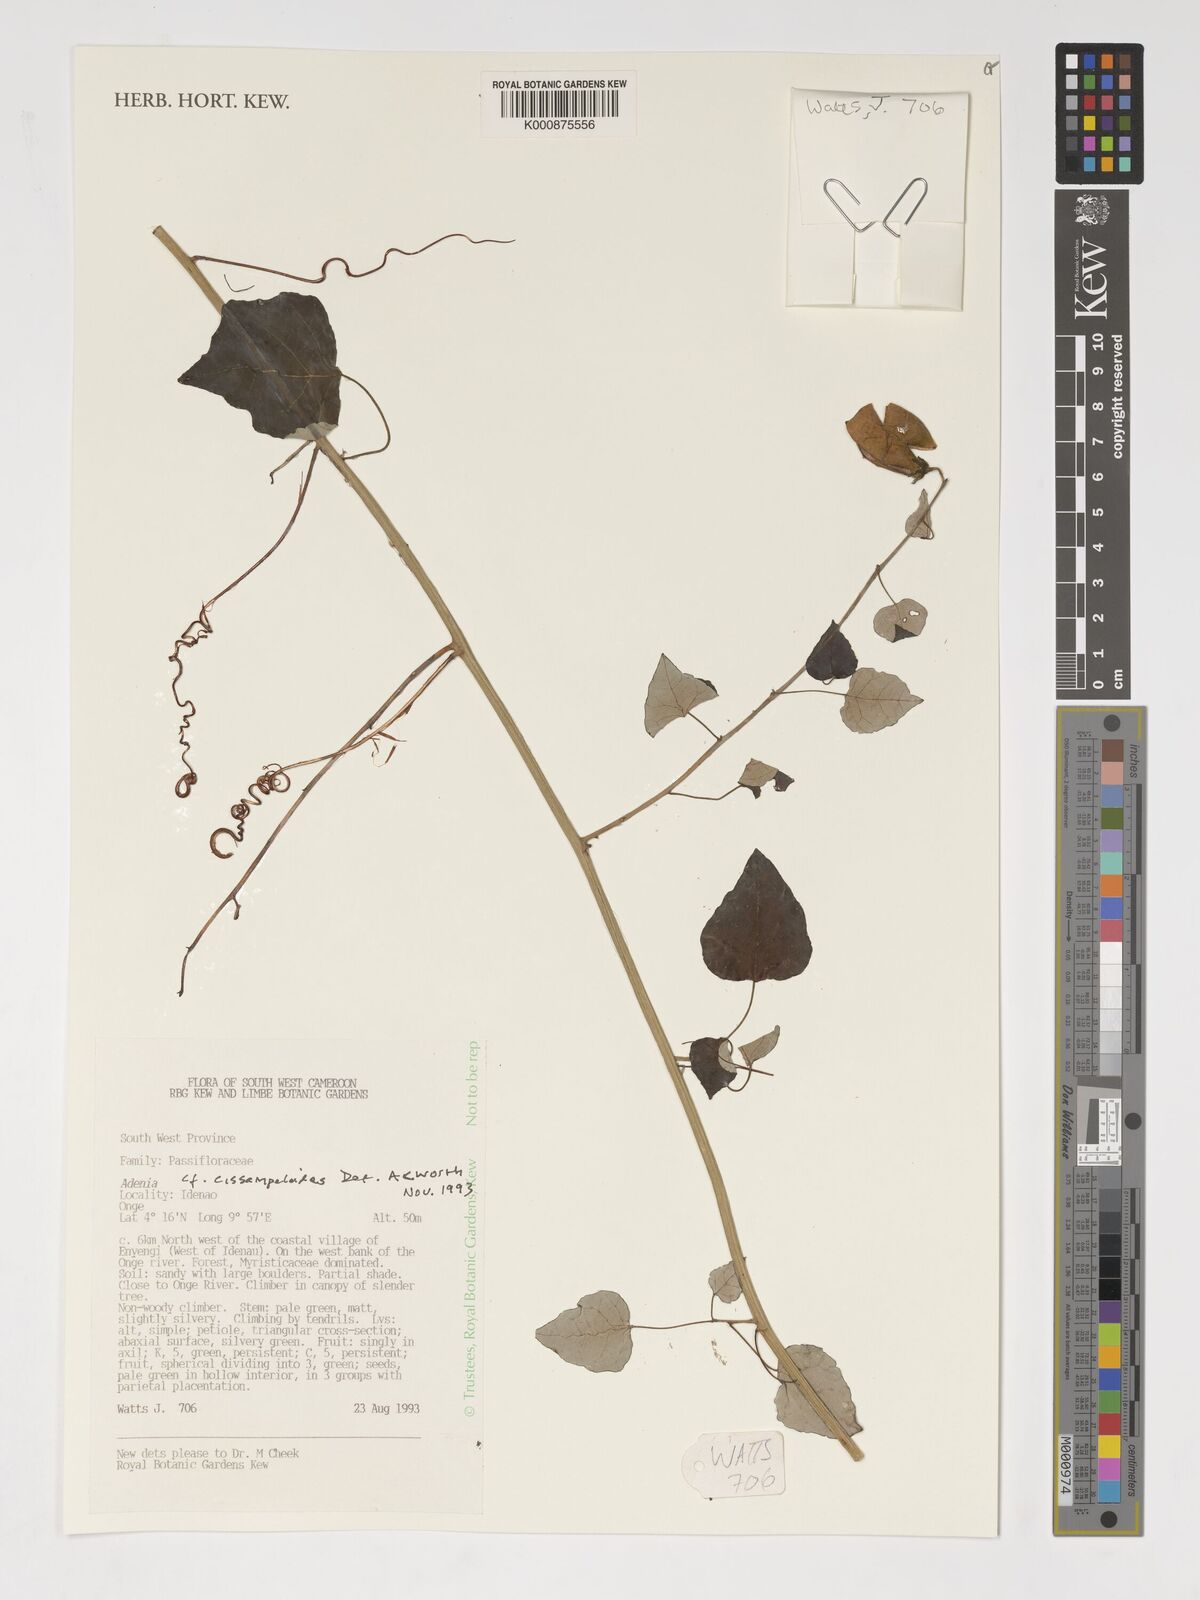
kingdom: Plantae
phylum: Tracheophyta
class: Magnoliopsida
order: Malpighiales
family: Passifloraceae
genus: Adenia
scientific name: Adenia cissampeloides
